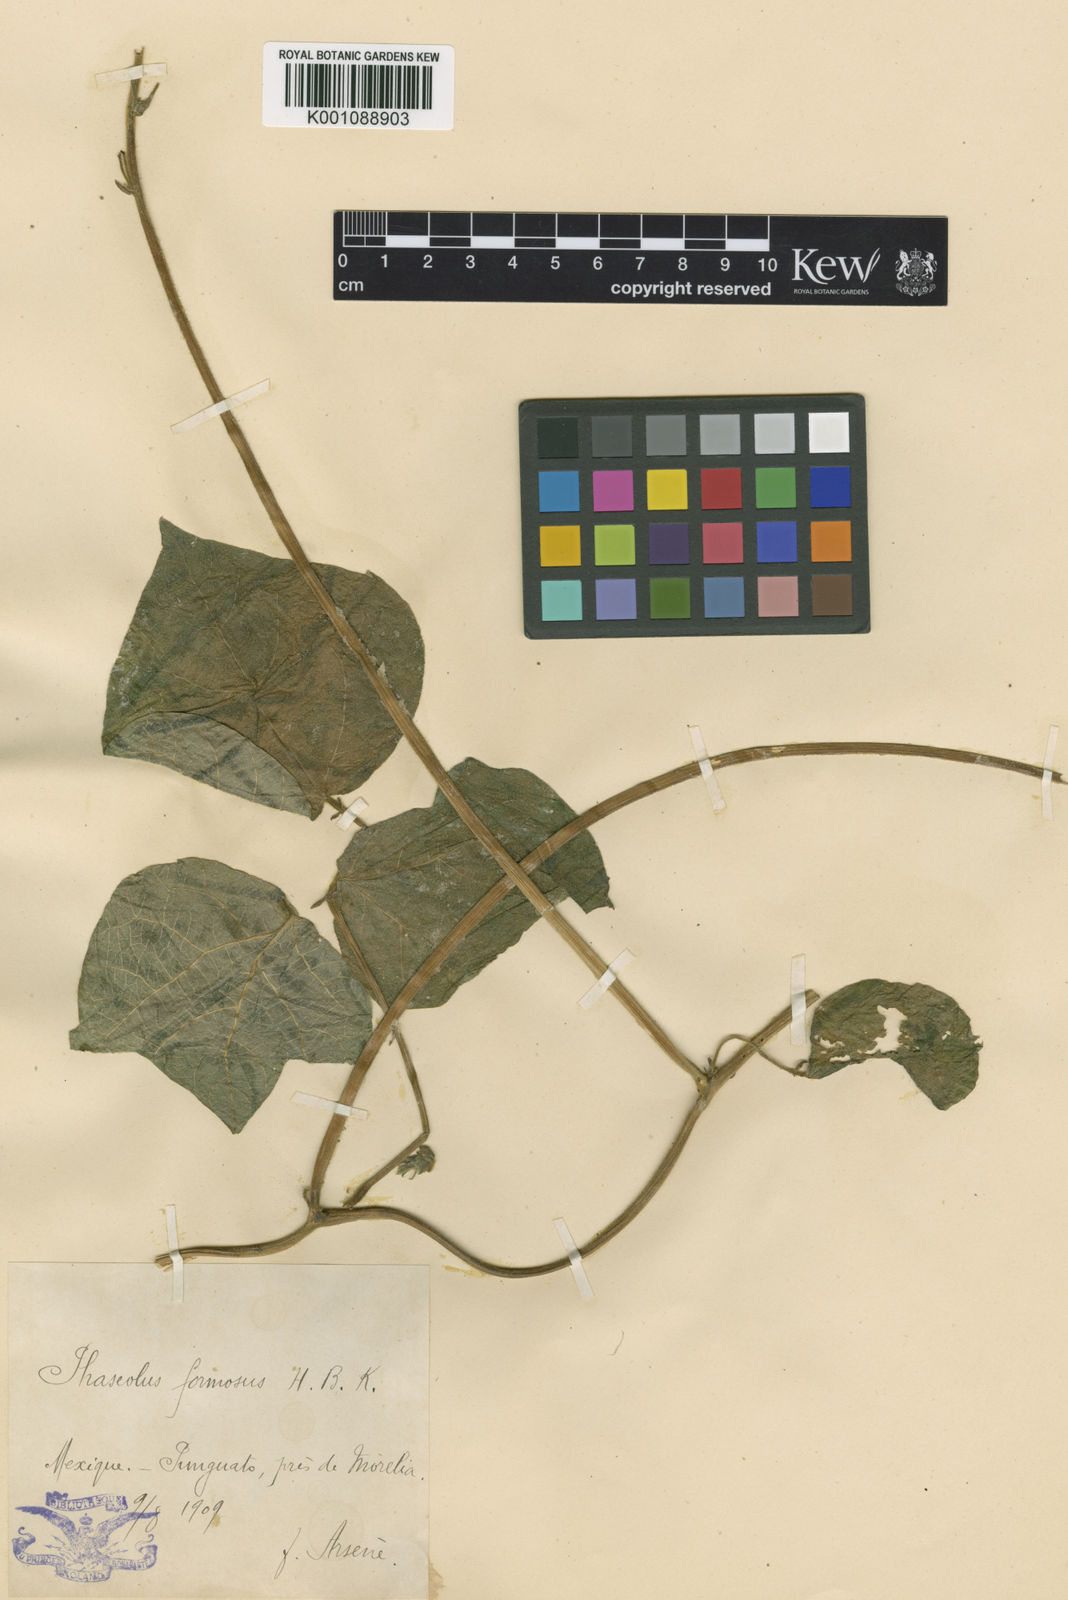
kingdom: Plantae
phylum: Tracheophyta
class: Magnoliopsida
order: Fabales
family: Fabaceae
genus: Phaseolus
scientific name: Phaseolus coccineus
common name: Runner bean
